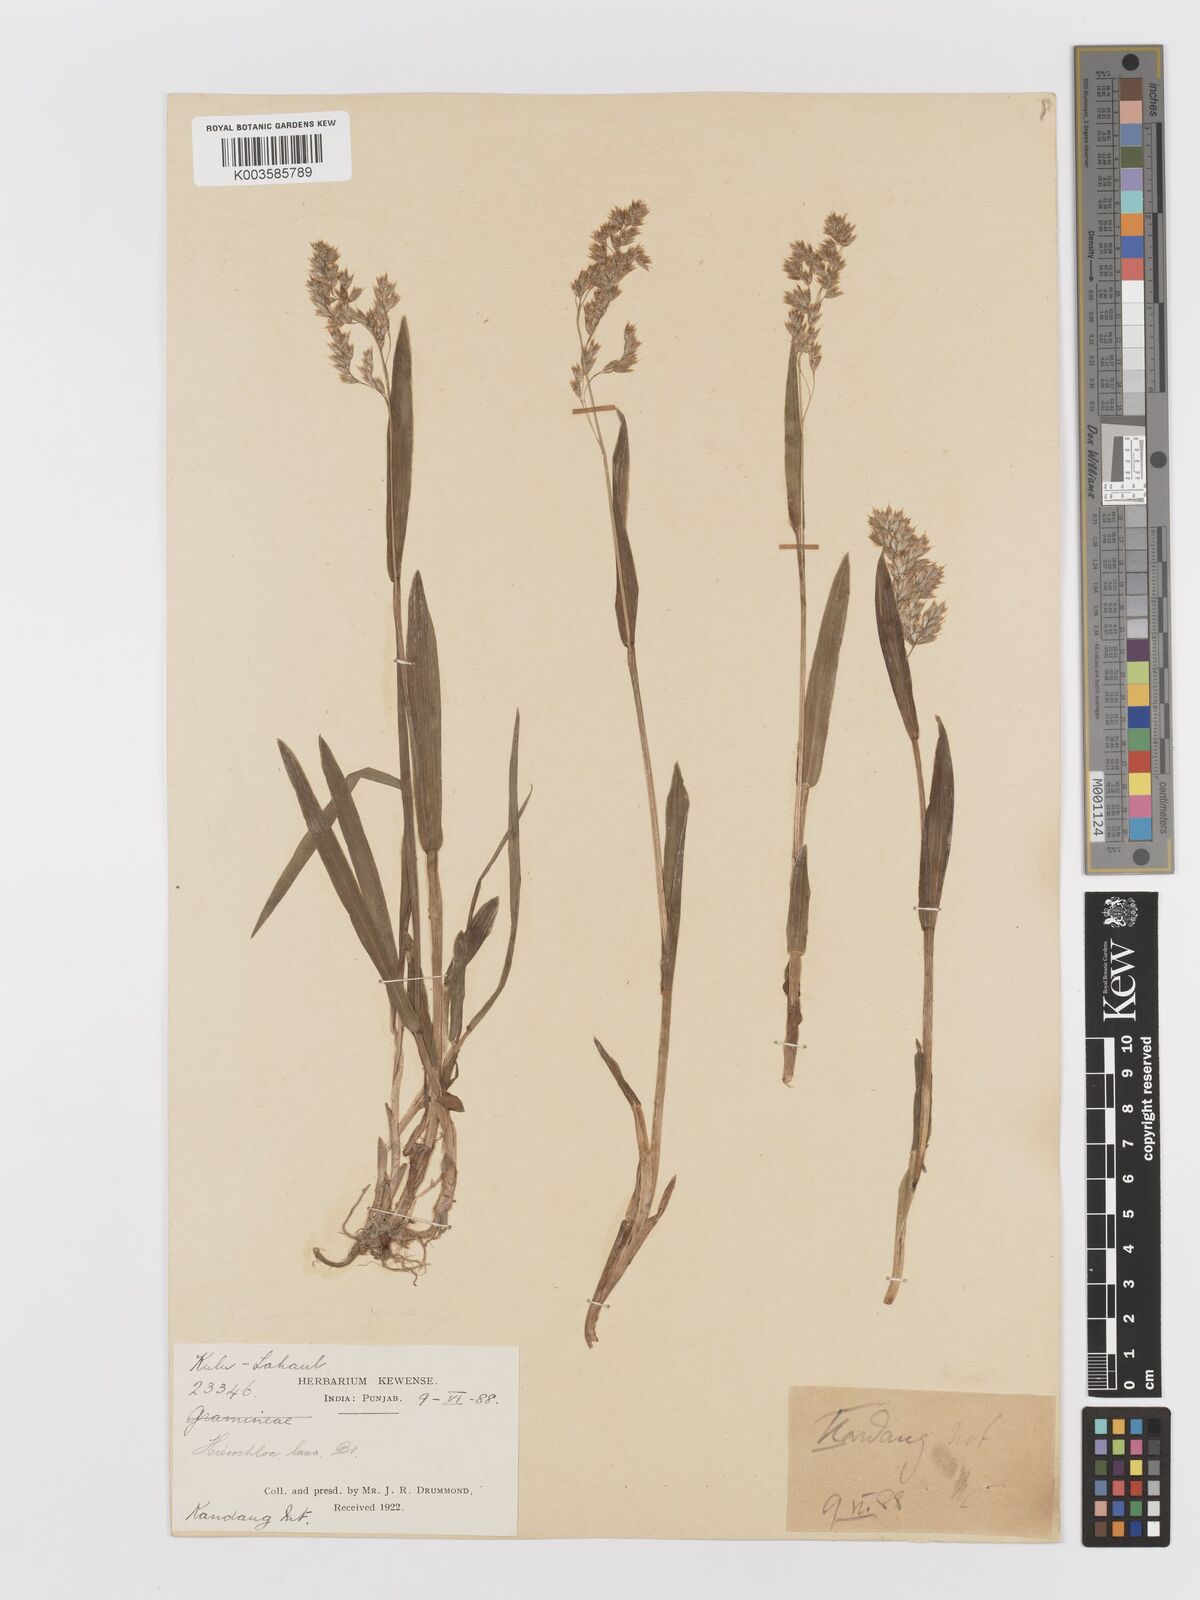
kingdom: Plantae
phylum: Tracheophyta
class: Liliopsida
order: Poales
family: Poaceae
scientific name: Poaceae
